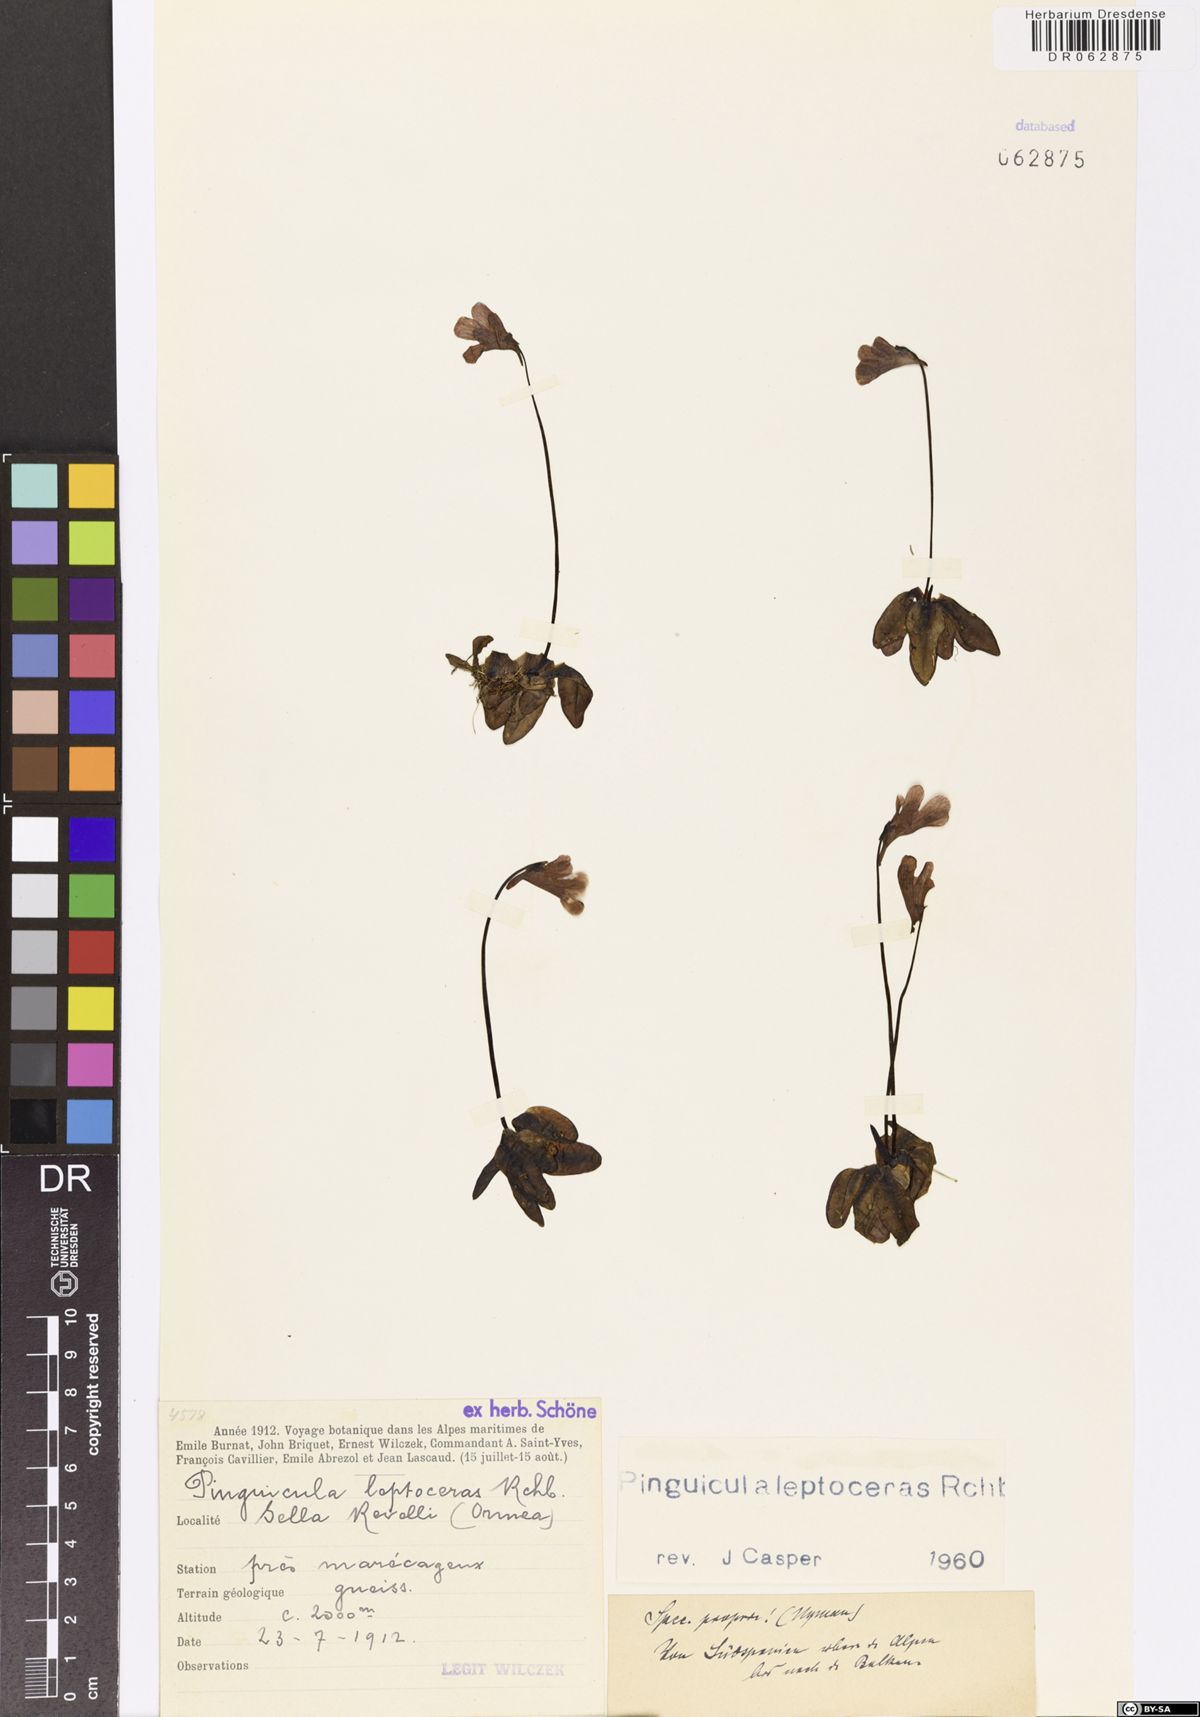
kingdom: Plantae
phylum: Tracheophyta
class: Magnoliopsida
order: Lamiales
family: Lentibulariaceae
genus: Pinguicula
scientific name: Pinguicula leptoceras
